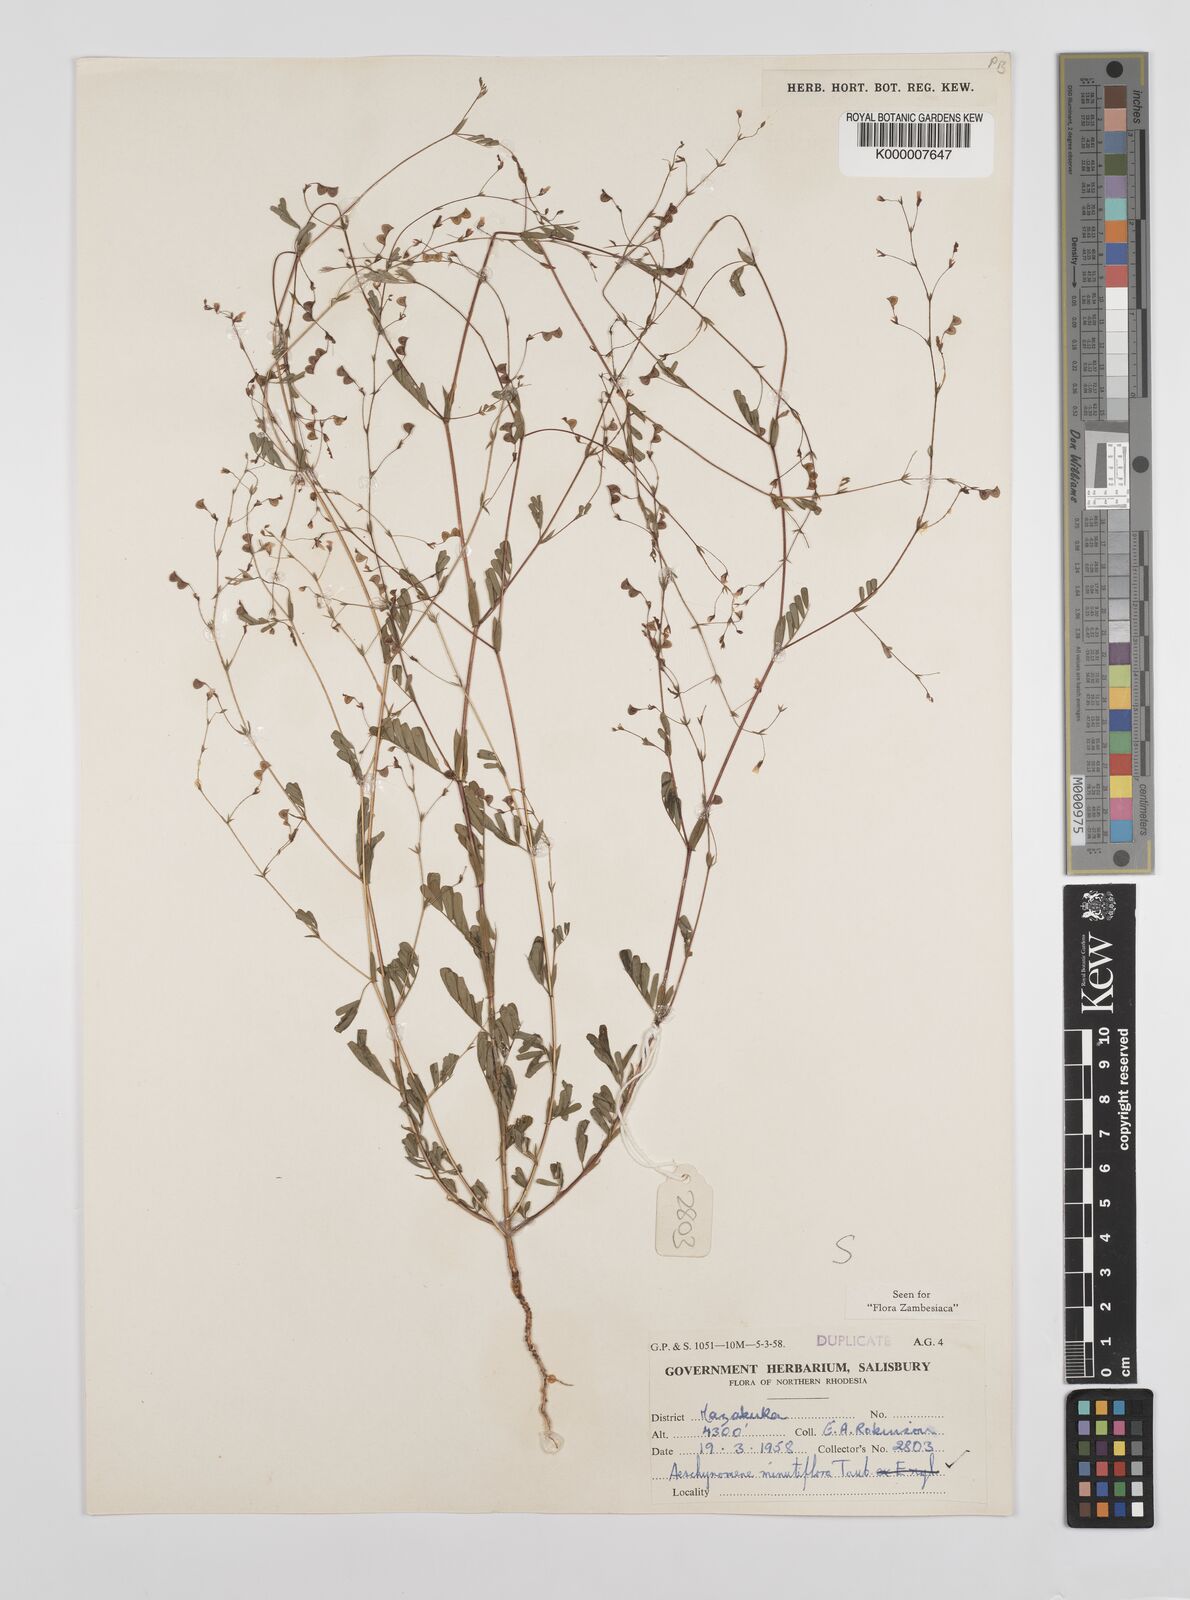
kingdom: Plantae
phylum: Tracheophyta
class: Magnoliopsida
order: Fabales
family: Fabaceae
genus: Aeschynomene
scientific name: Aeschynomene minutiflora
